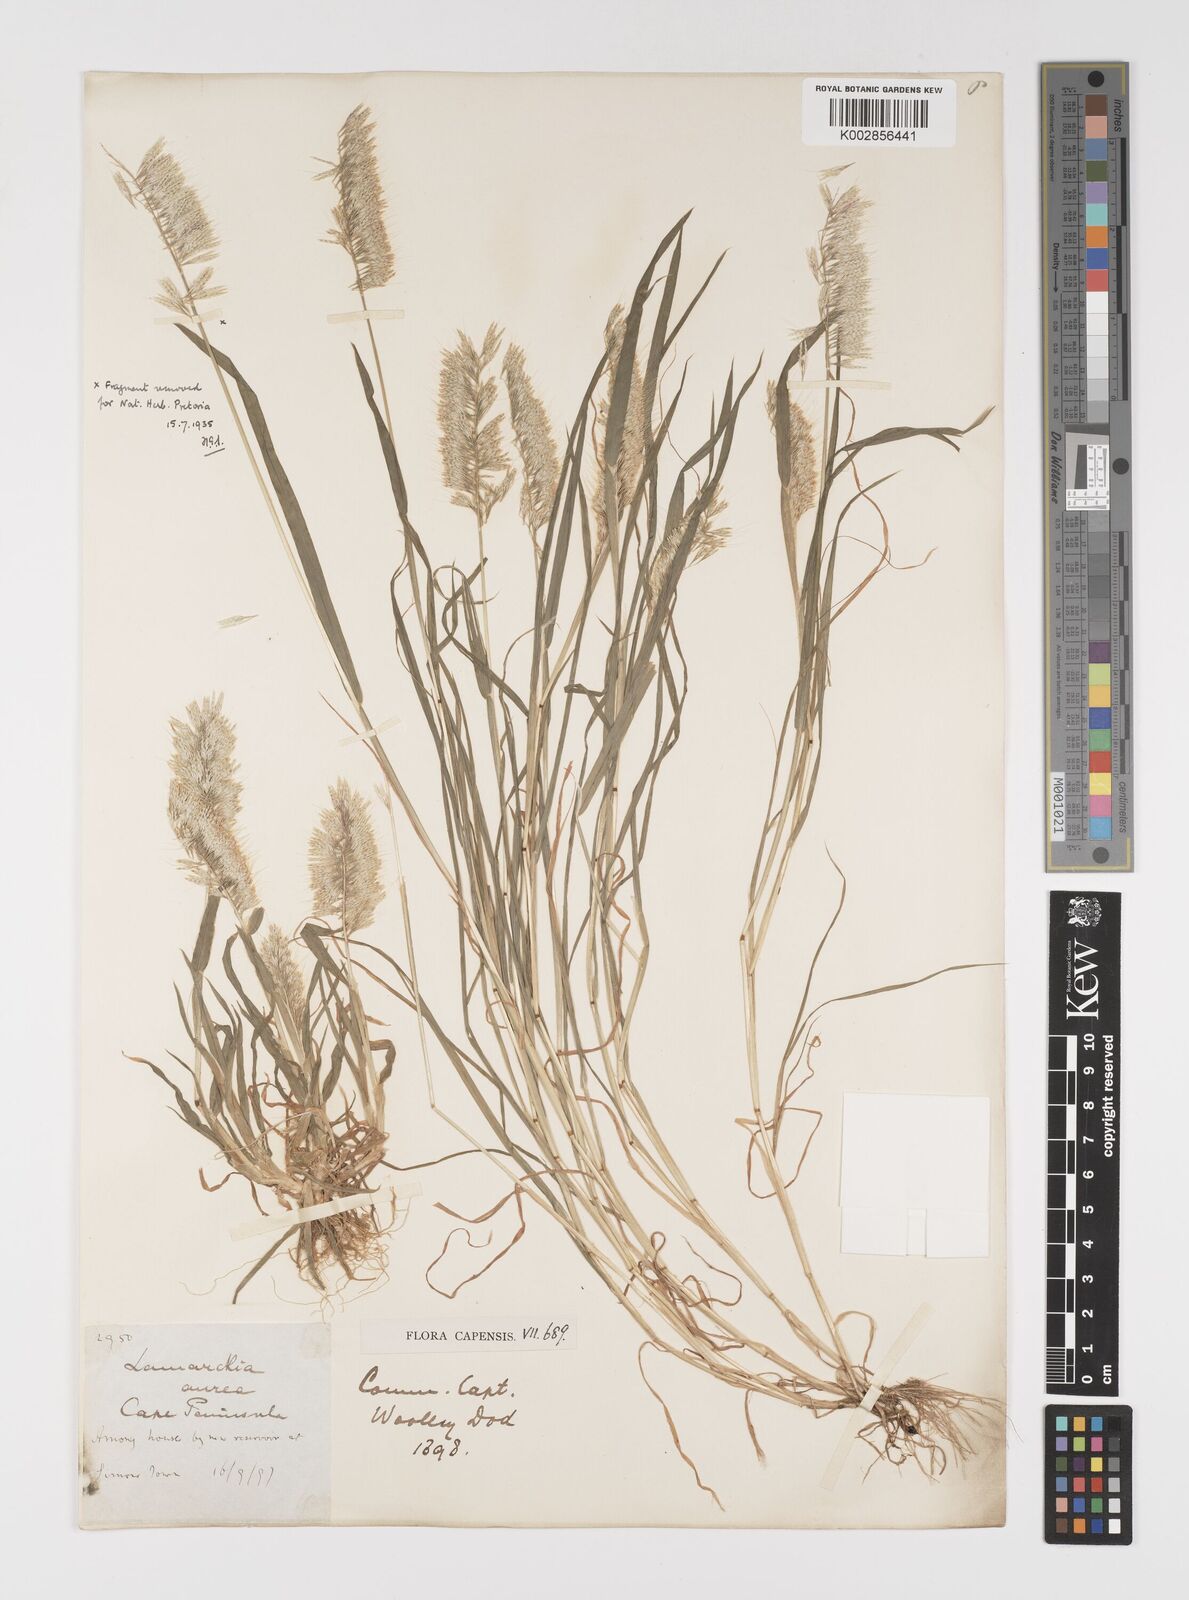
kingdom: Plantae
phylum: Tracheophyta
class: Liliopsida
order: Poales
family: Poaceae
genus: Lamarckia
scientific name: Lamarckia aurea
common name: Golden dog's-tail
